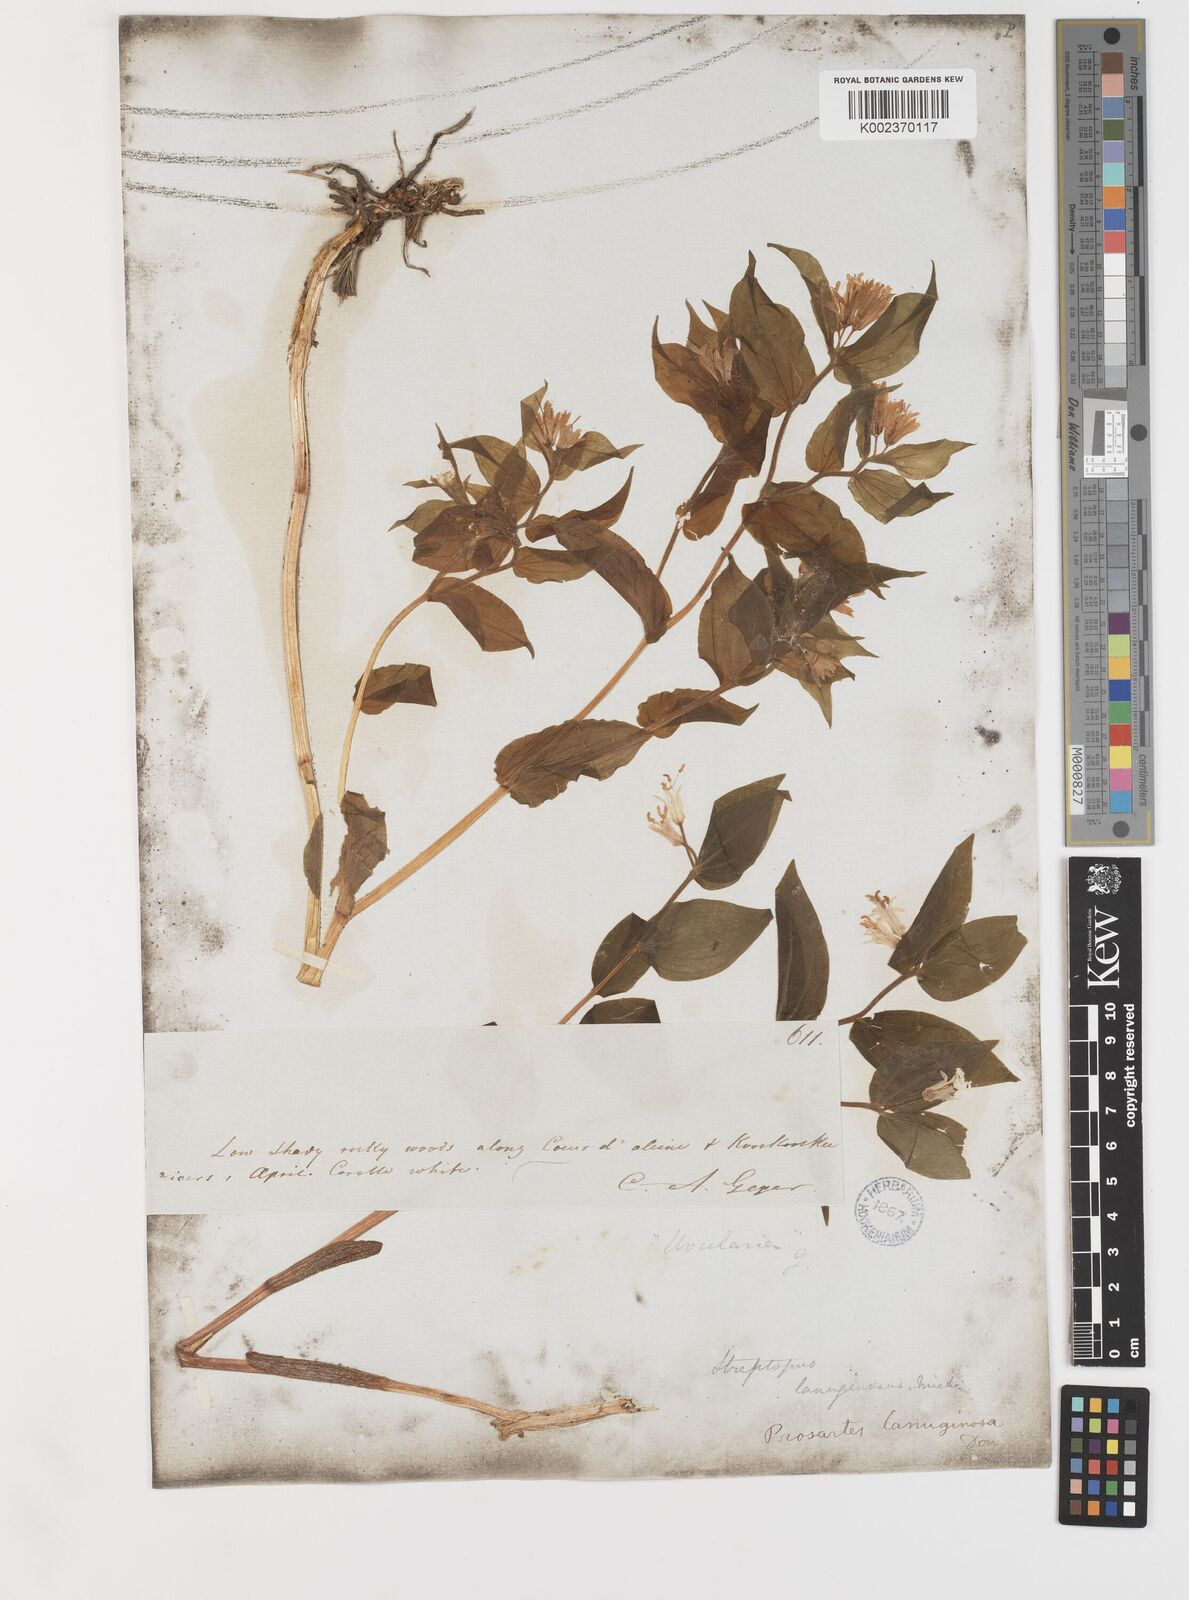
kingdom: Plantae
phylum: Tracheophyta
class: Liliopsida
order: Liliales
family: Liliaceae
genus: Prosartes
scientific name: Prosartes hookeri
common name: Fairy-bells
